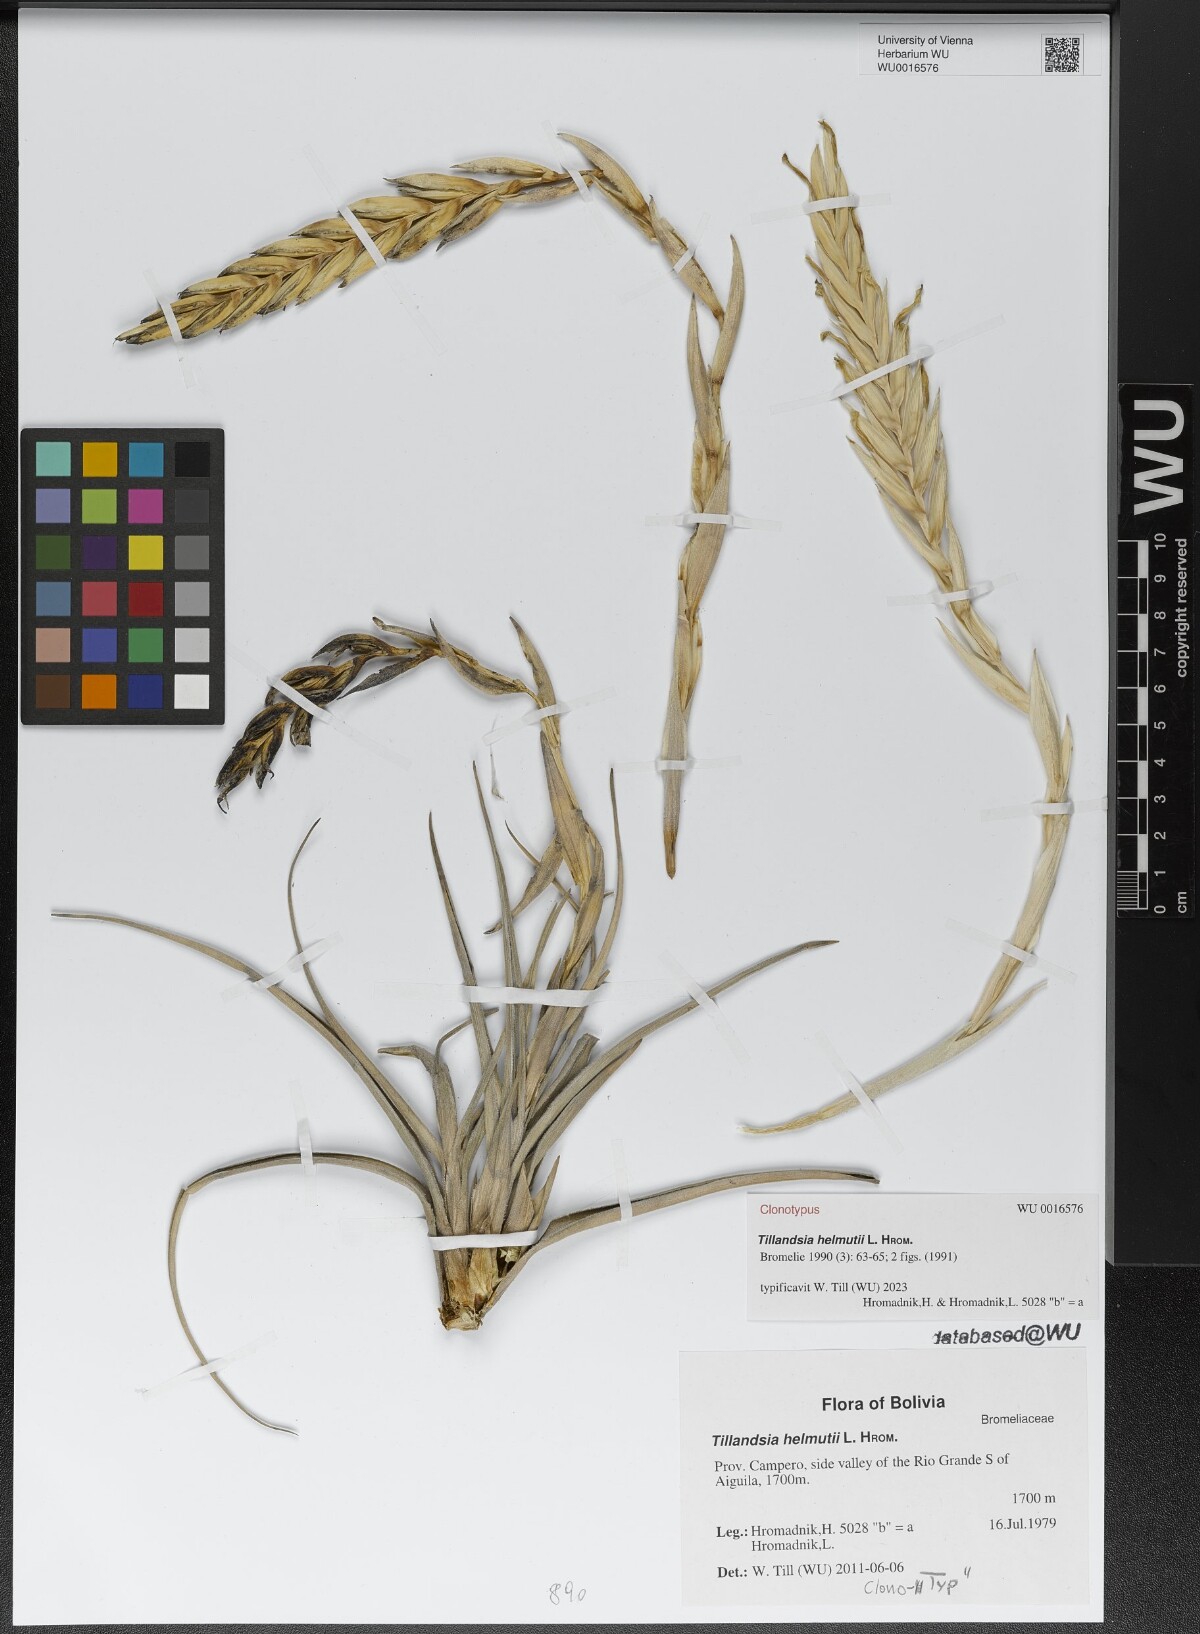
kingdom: Plantae
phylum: Tracheophyta
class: Liliopsida
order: Poales
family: Bromeliaceae
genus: Tillandsia
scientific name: Tillandsia helmutii
